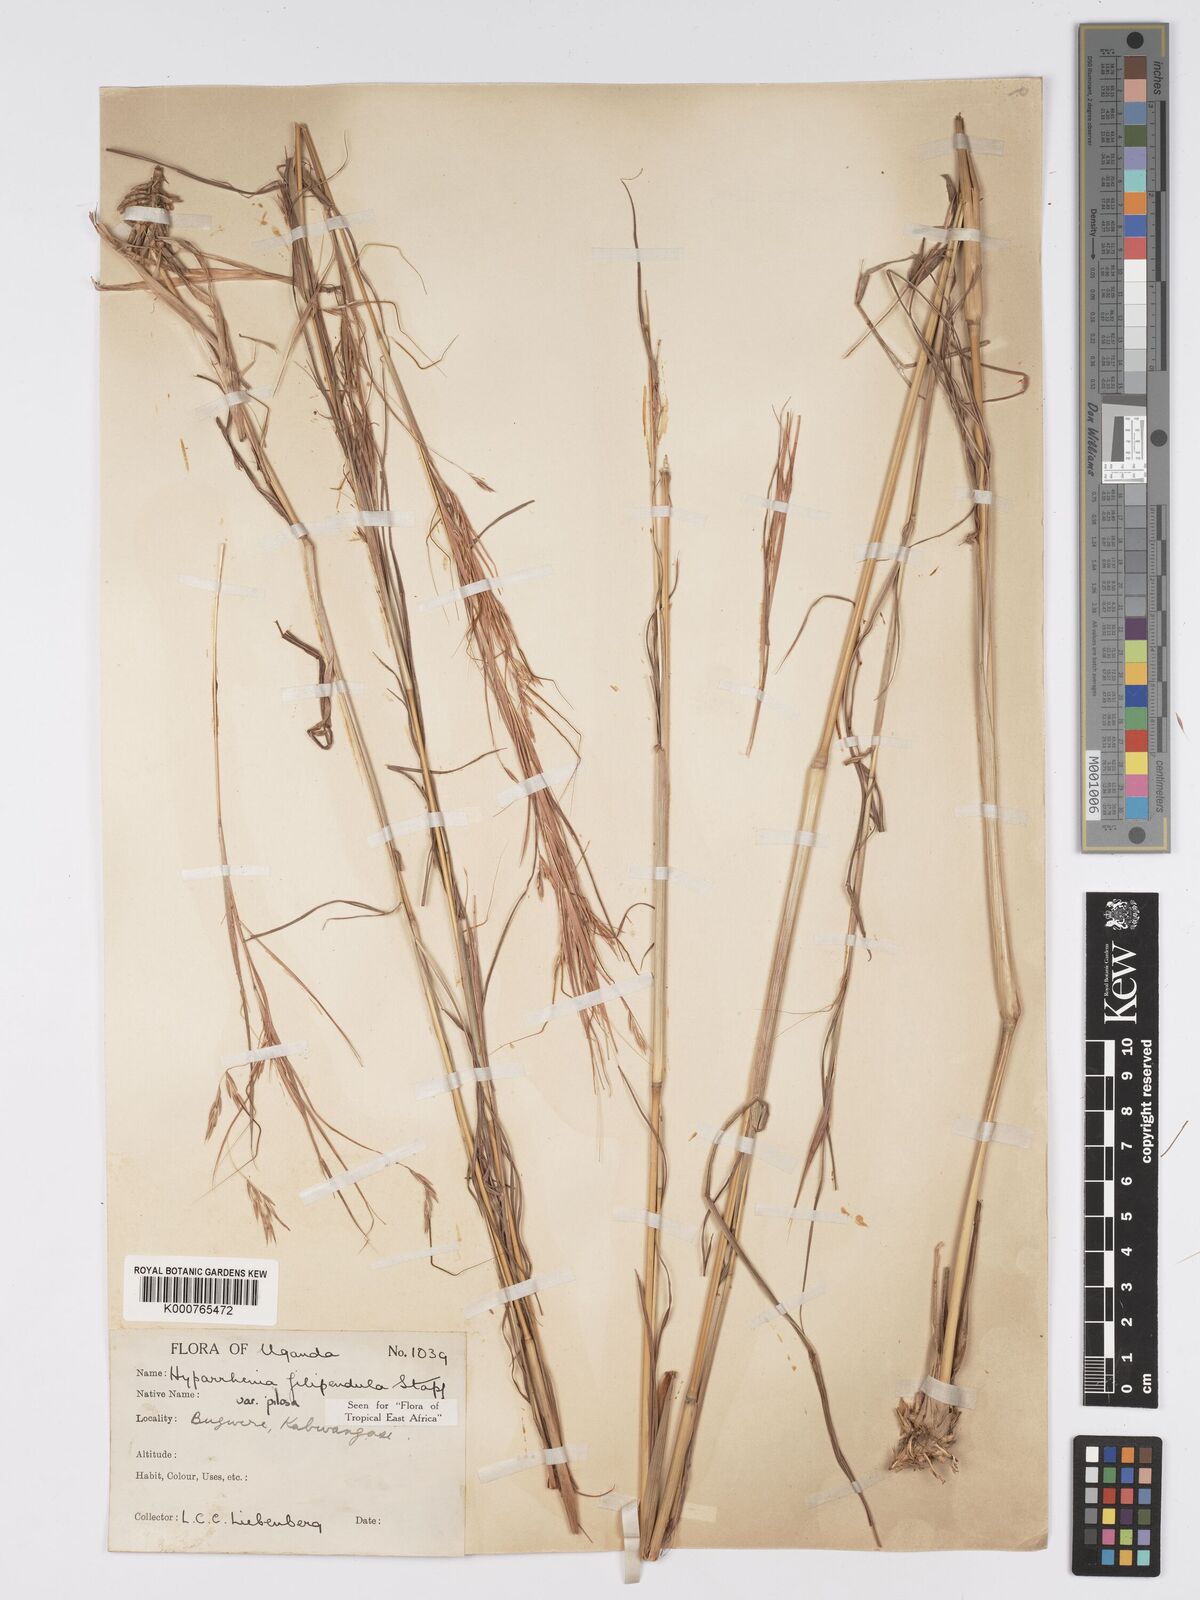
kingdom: Plantae
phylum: Tracheophyta
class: Liliopsida
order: Poales
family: Poaceae
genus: Hyparrhenia
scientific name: Hyparrhenia filipendula
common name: Tambookie grass
